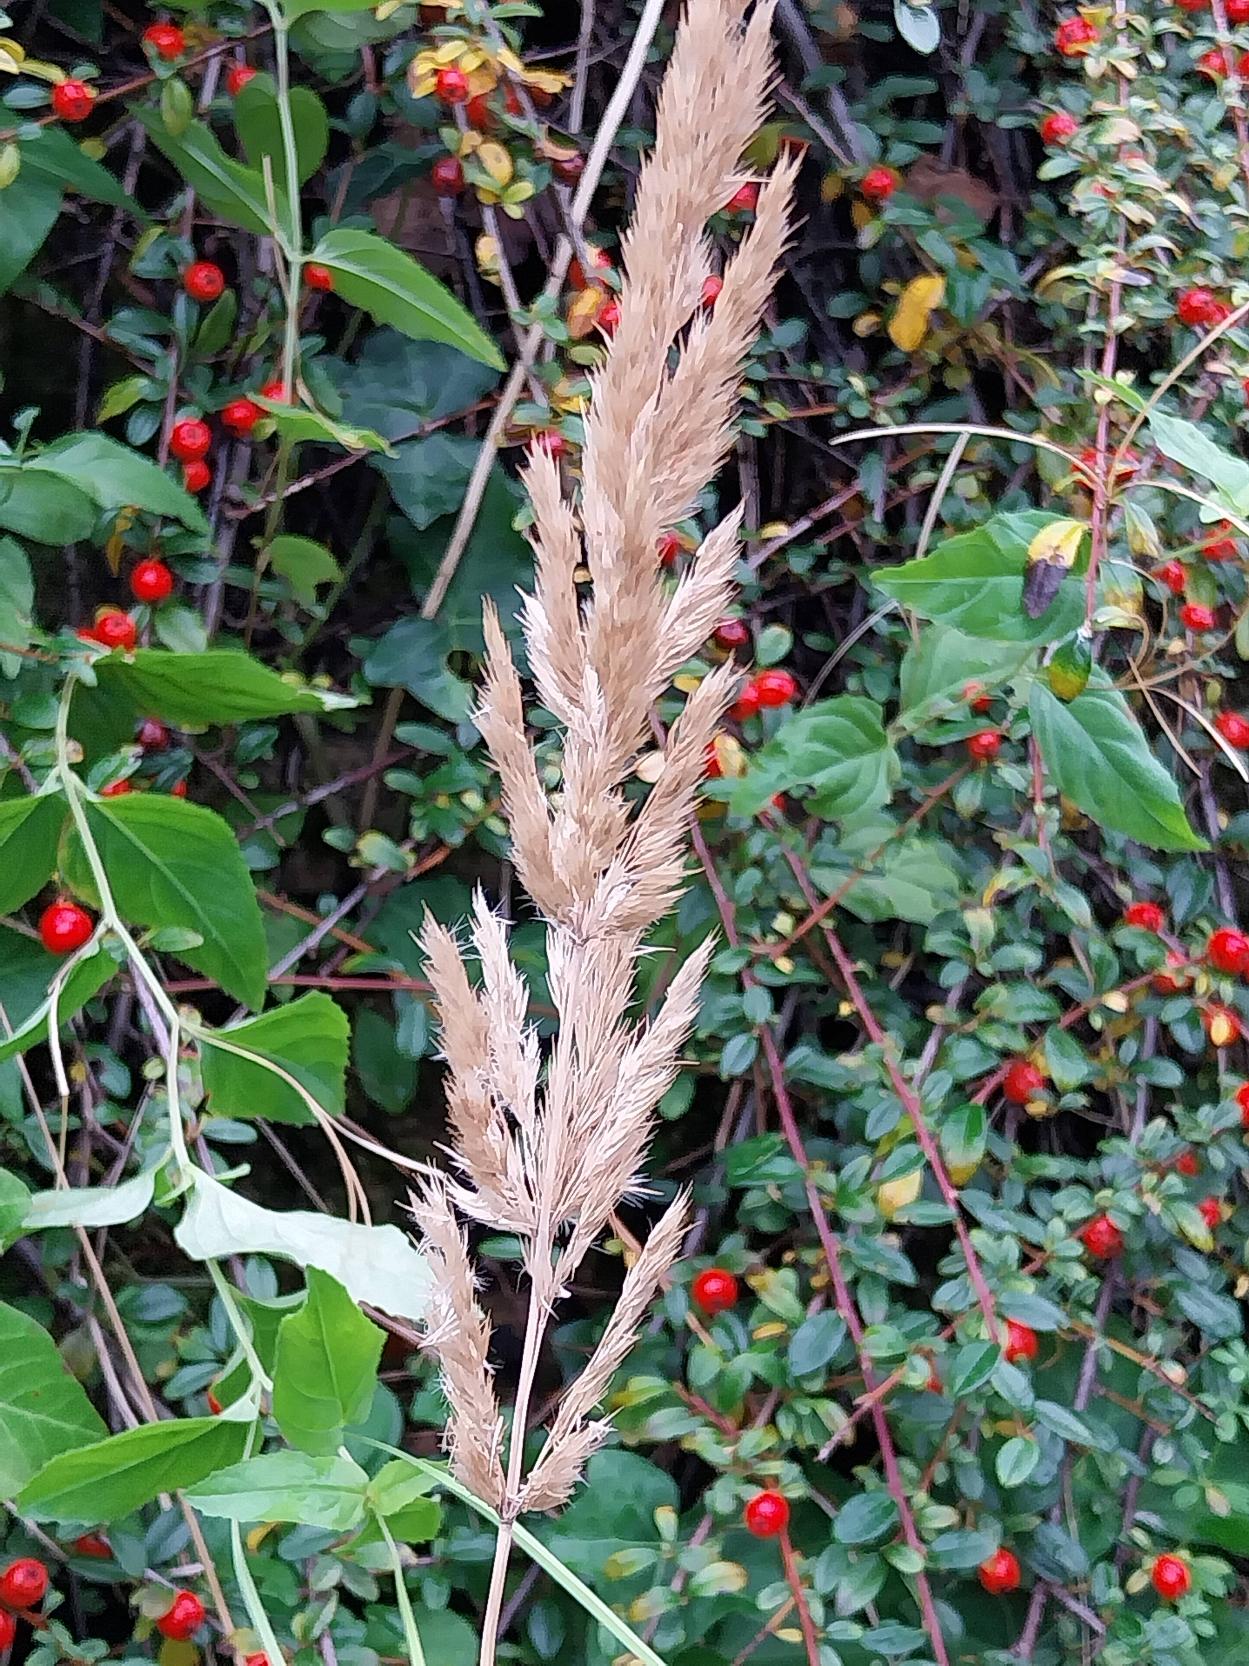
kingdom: Plantae
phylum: Tracheophyta
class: Liliopsida
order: Poales
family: Poaceae
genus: Calamagrostis
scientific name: Calamagrostis epigejos
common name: Bjerg-rørhvene
